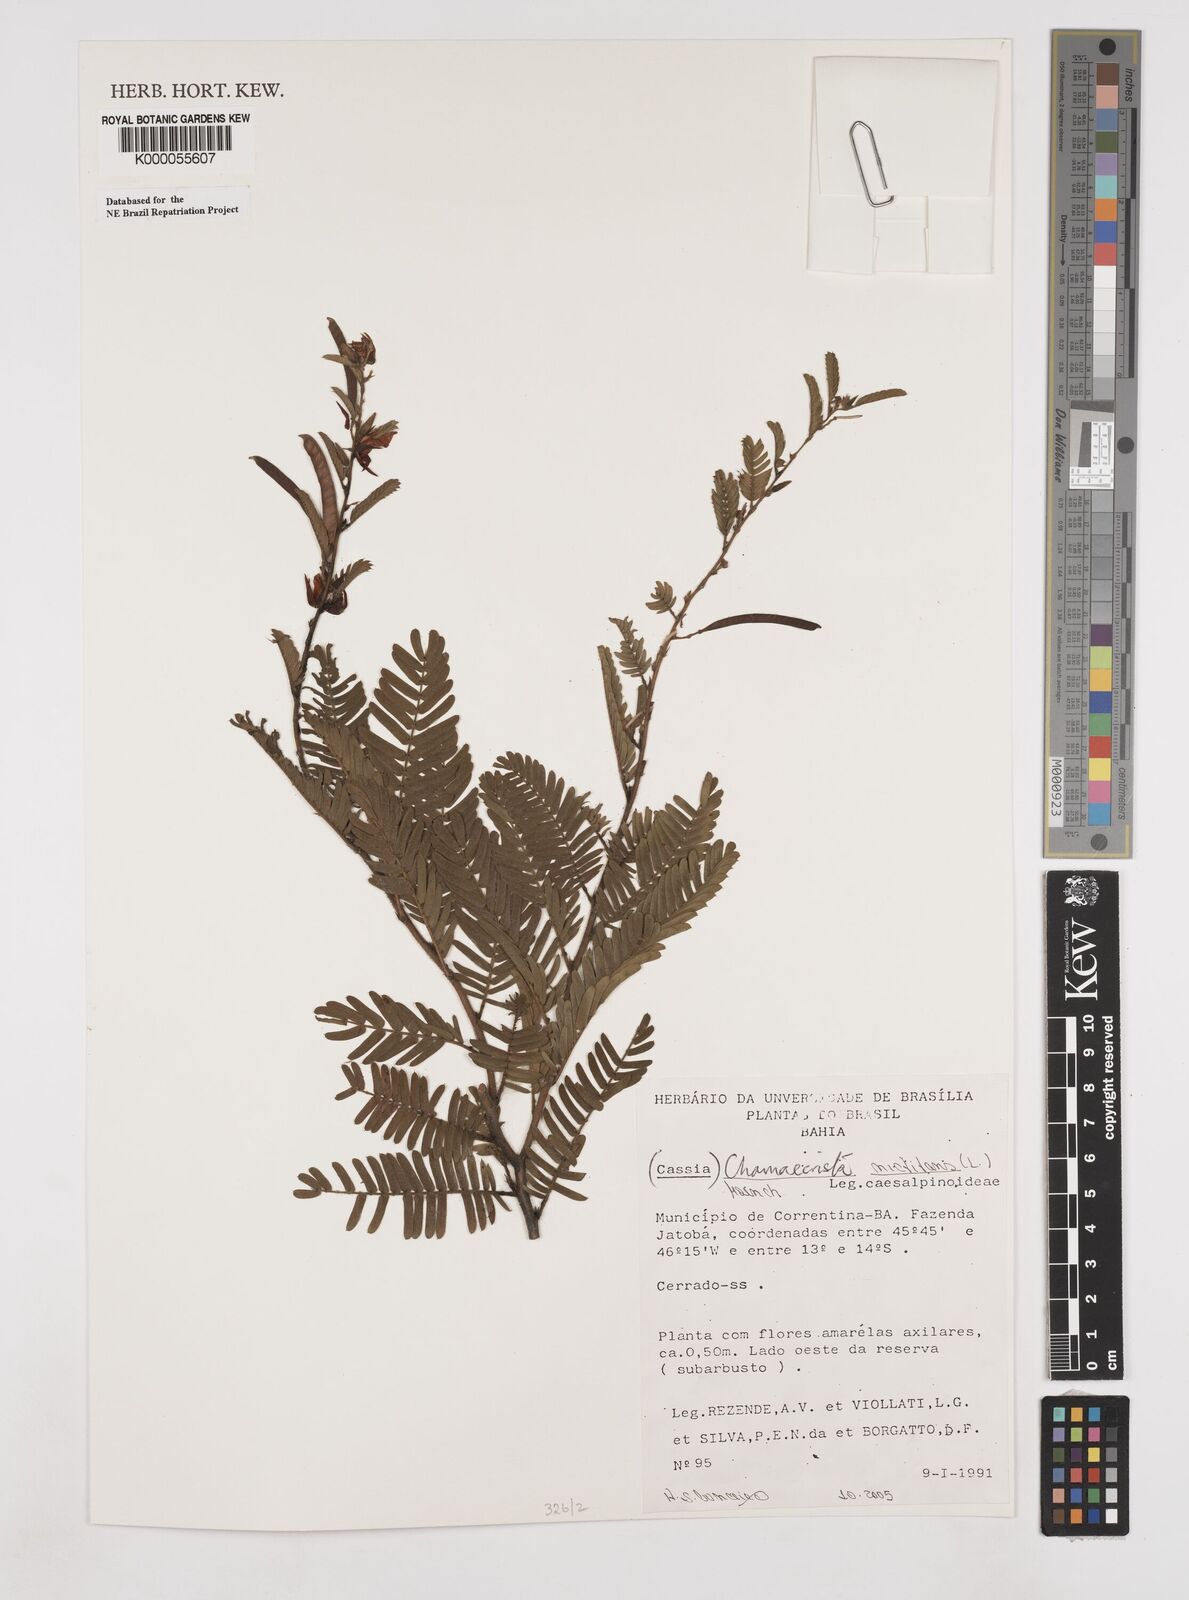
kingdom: Plantae
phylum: Tracheophyta
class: Magnoliopsida
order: Fabales
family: Fabaceae
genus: Chamaecrista
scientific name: Chamaecrista
